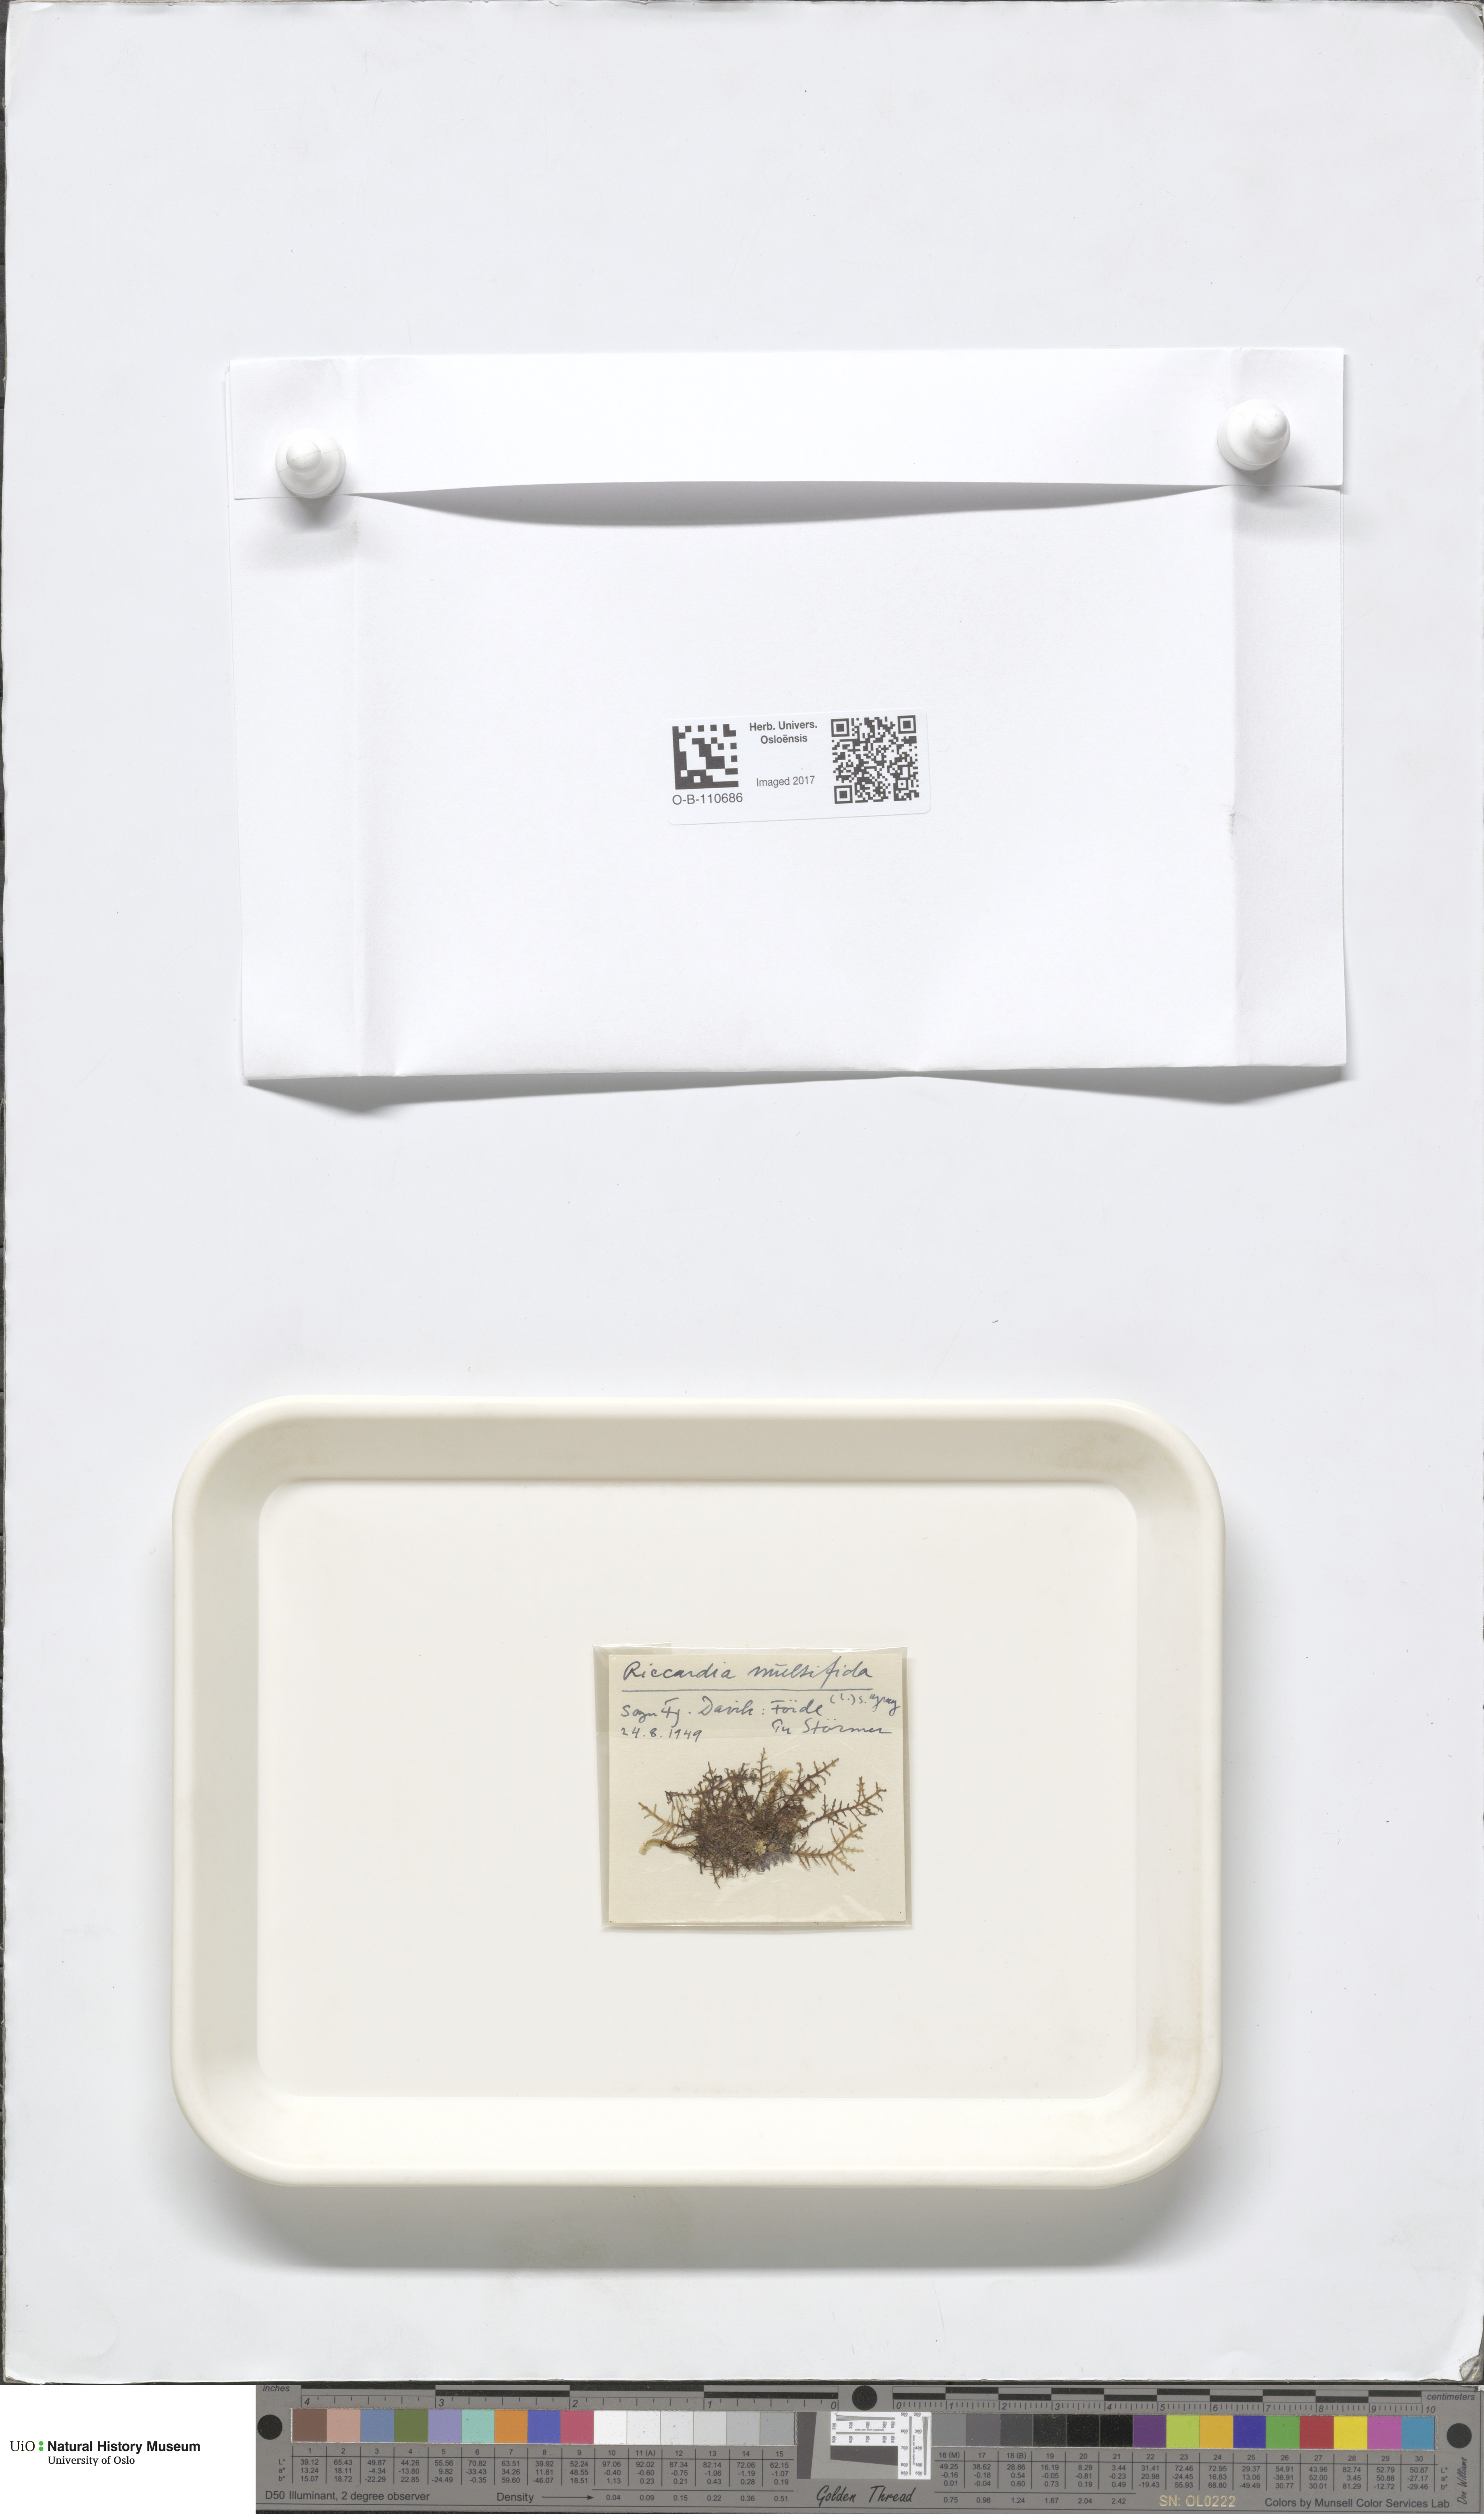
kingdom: Plantae
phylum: Marchantiophyta
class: Jungermanniopsida
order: Metzgeriales
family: Aneuraceae
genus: Riccardia
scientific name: Riccardia palmata
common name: Palmate germanderwort
